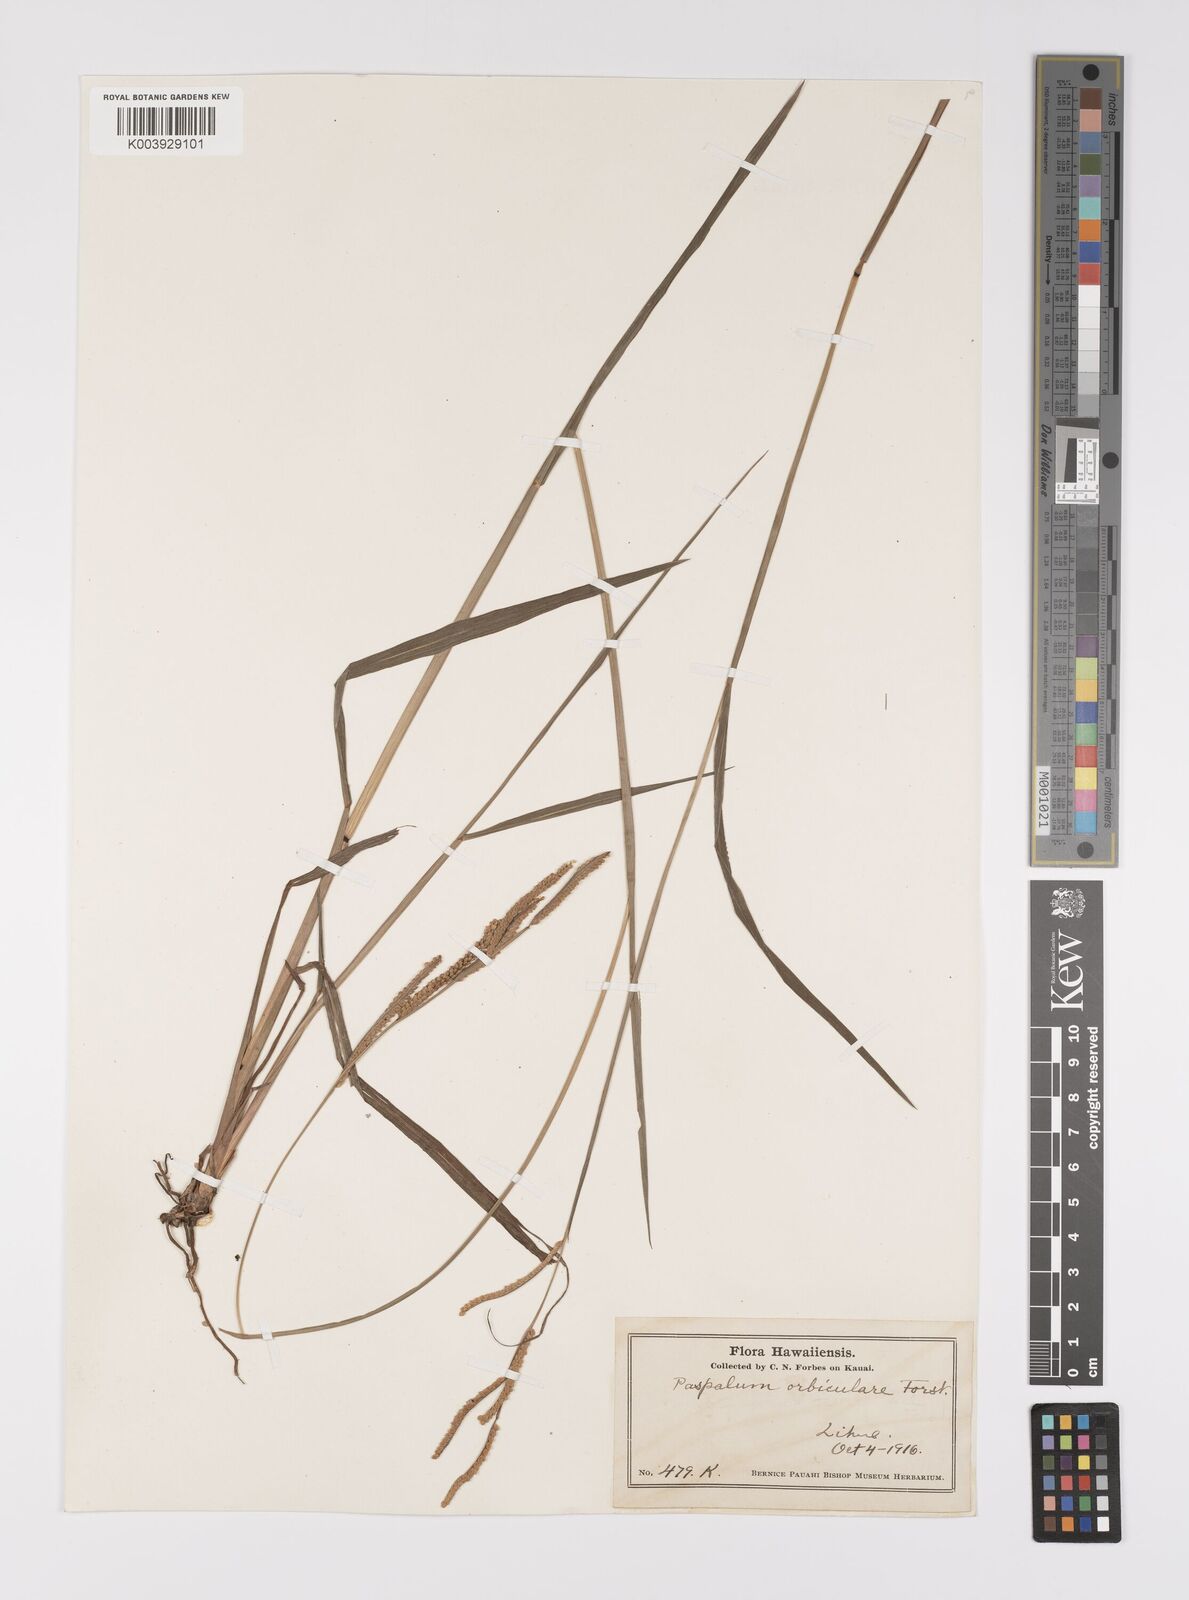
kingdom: Plantae
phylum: Tracheophyta
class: Liliopsida
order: Poales
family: Poaceae
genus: Paspalum
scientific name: Paspalum scrobiculatum
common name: Kodo millet
